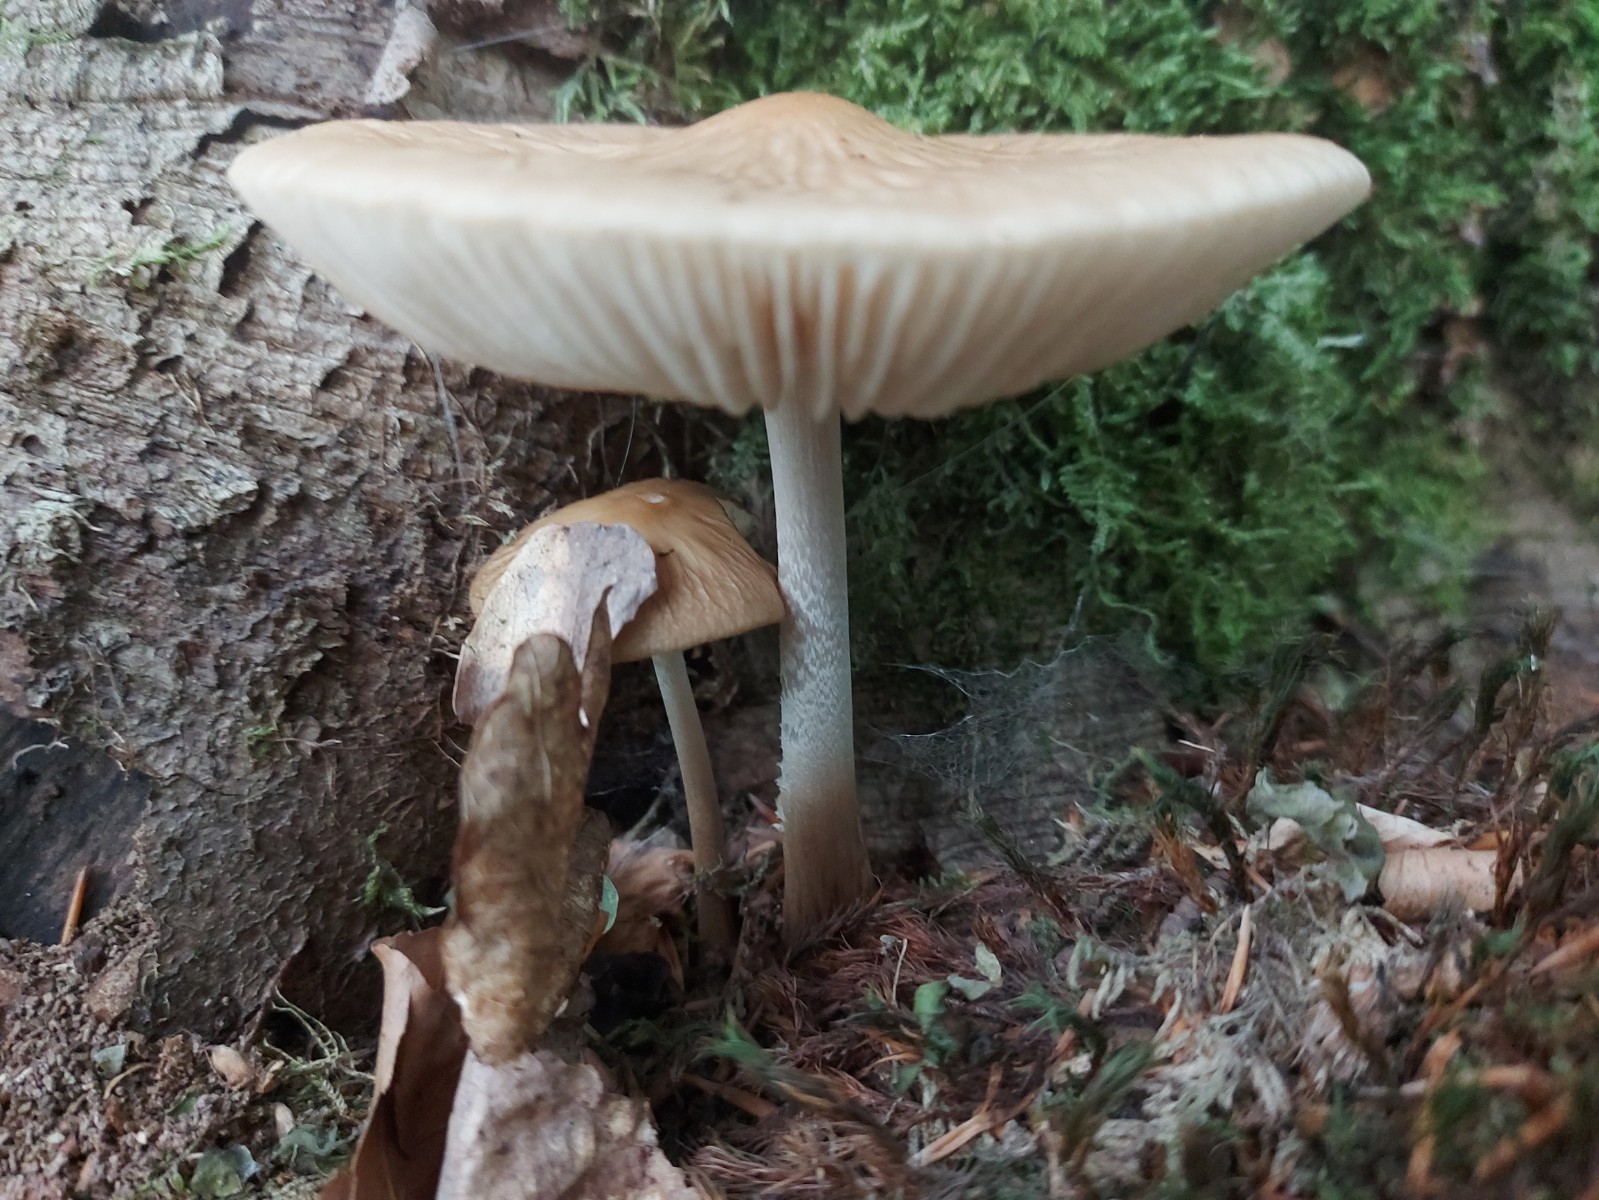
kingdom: Fungi
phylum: Basidiomycota
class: Agaricomycetes
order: Agaricales
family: Physalacriaceae
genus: Hymenopellis
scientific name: Hymenopellis radicata
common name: almindelig pælerodshat
